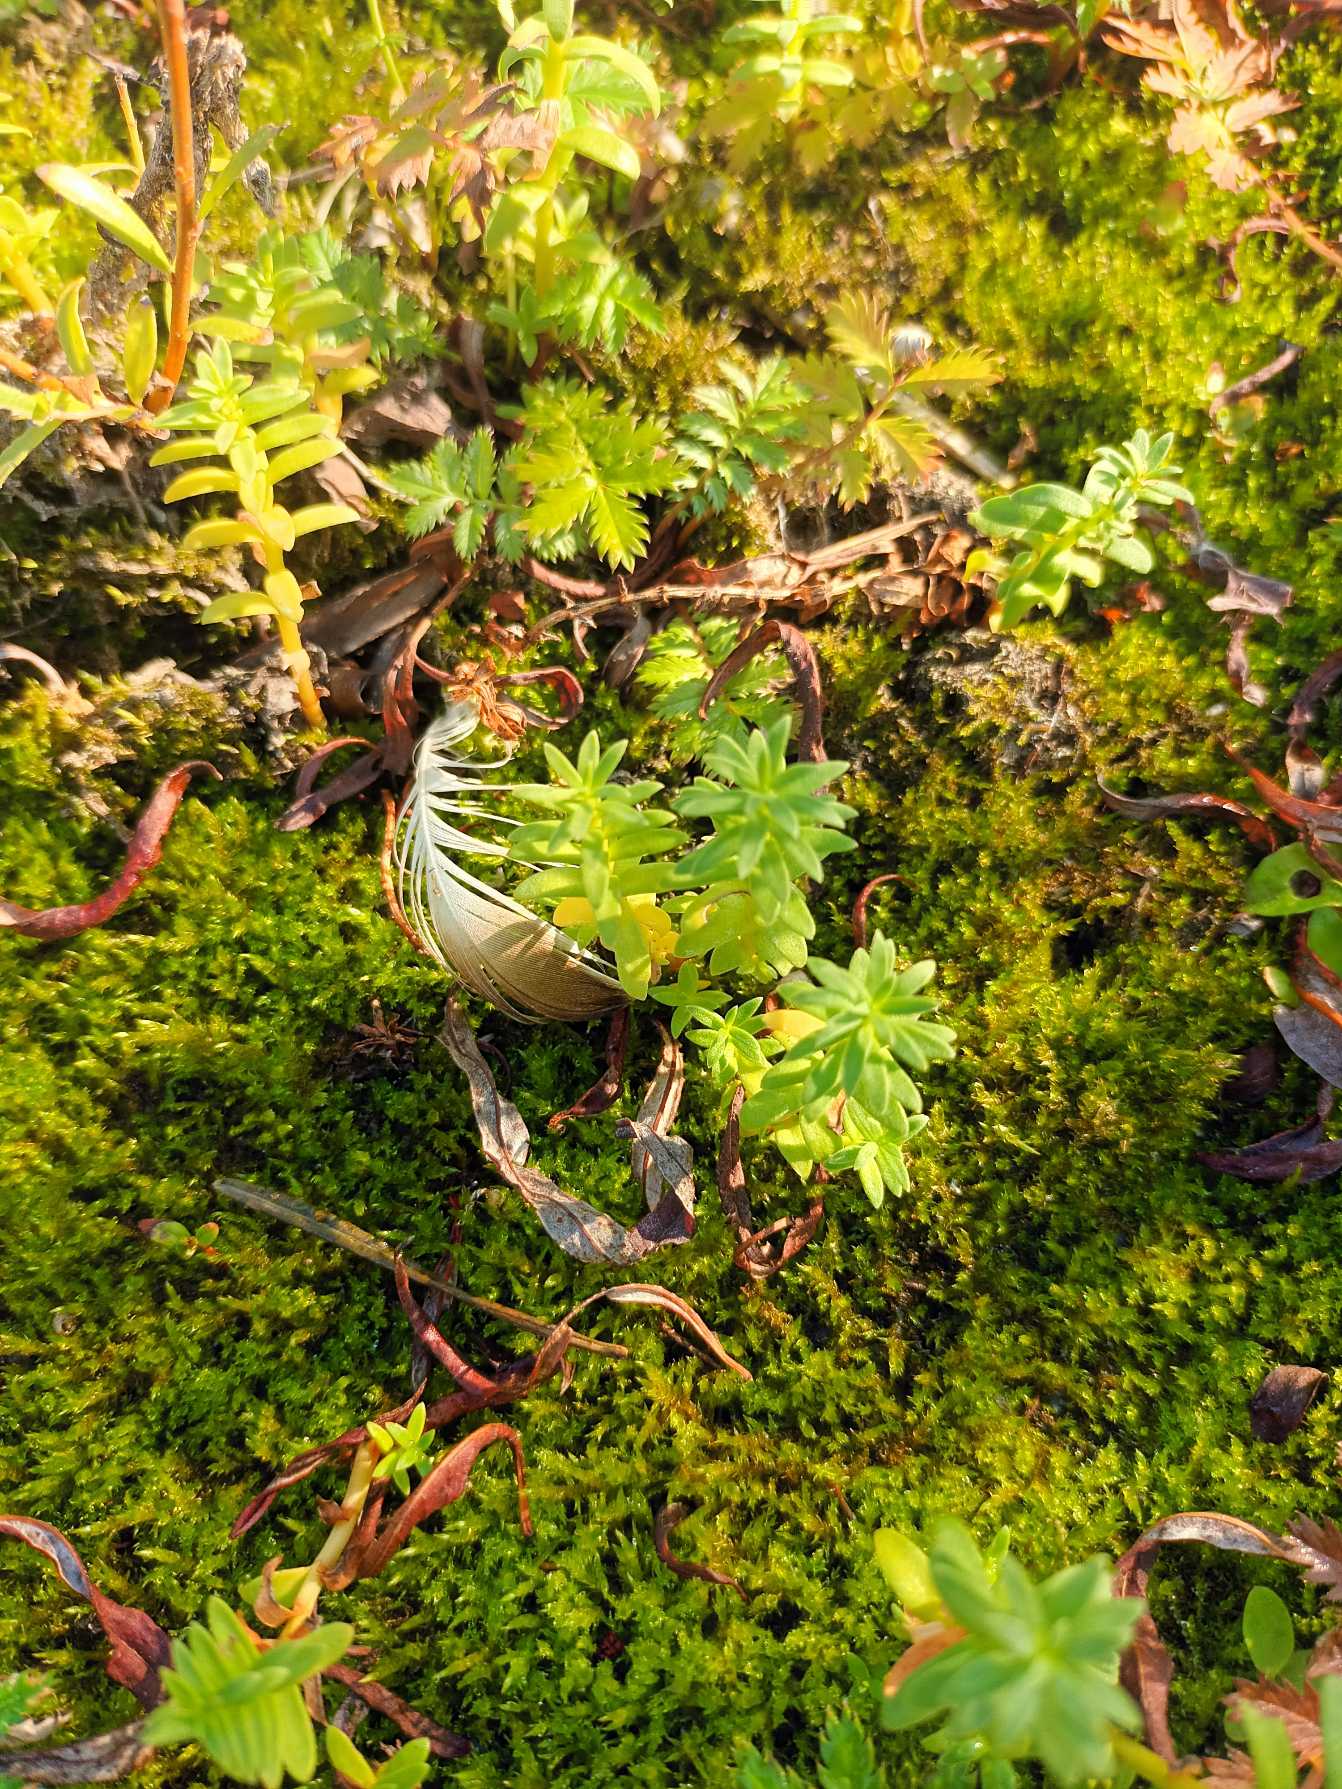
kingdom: Plantae
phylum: Tracheophyta
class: Magnoliopsida
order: Ericales
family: Primulaceae
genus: Lysimachia
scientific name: Lysimachia maritima
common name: Sandkryb
